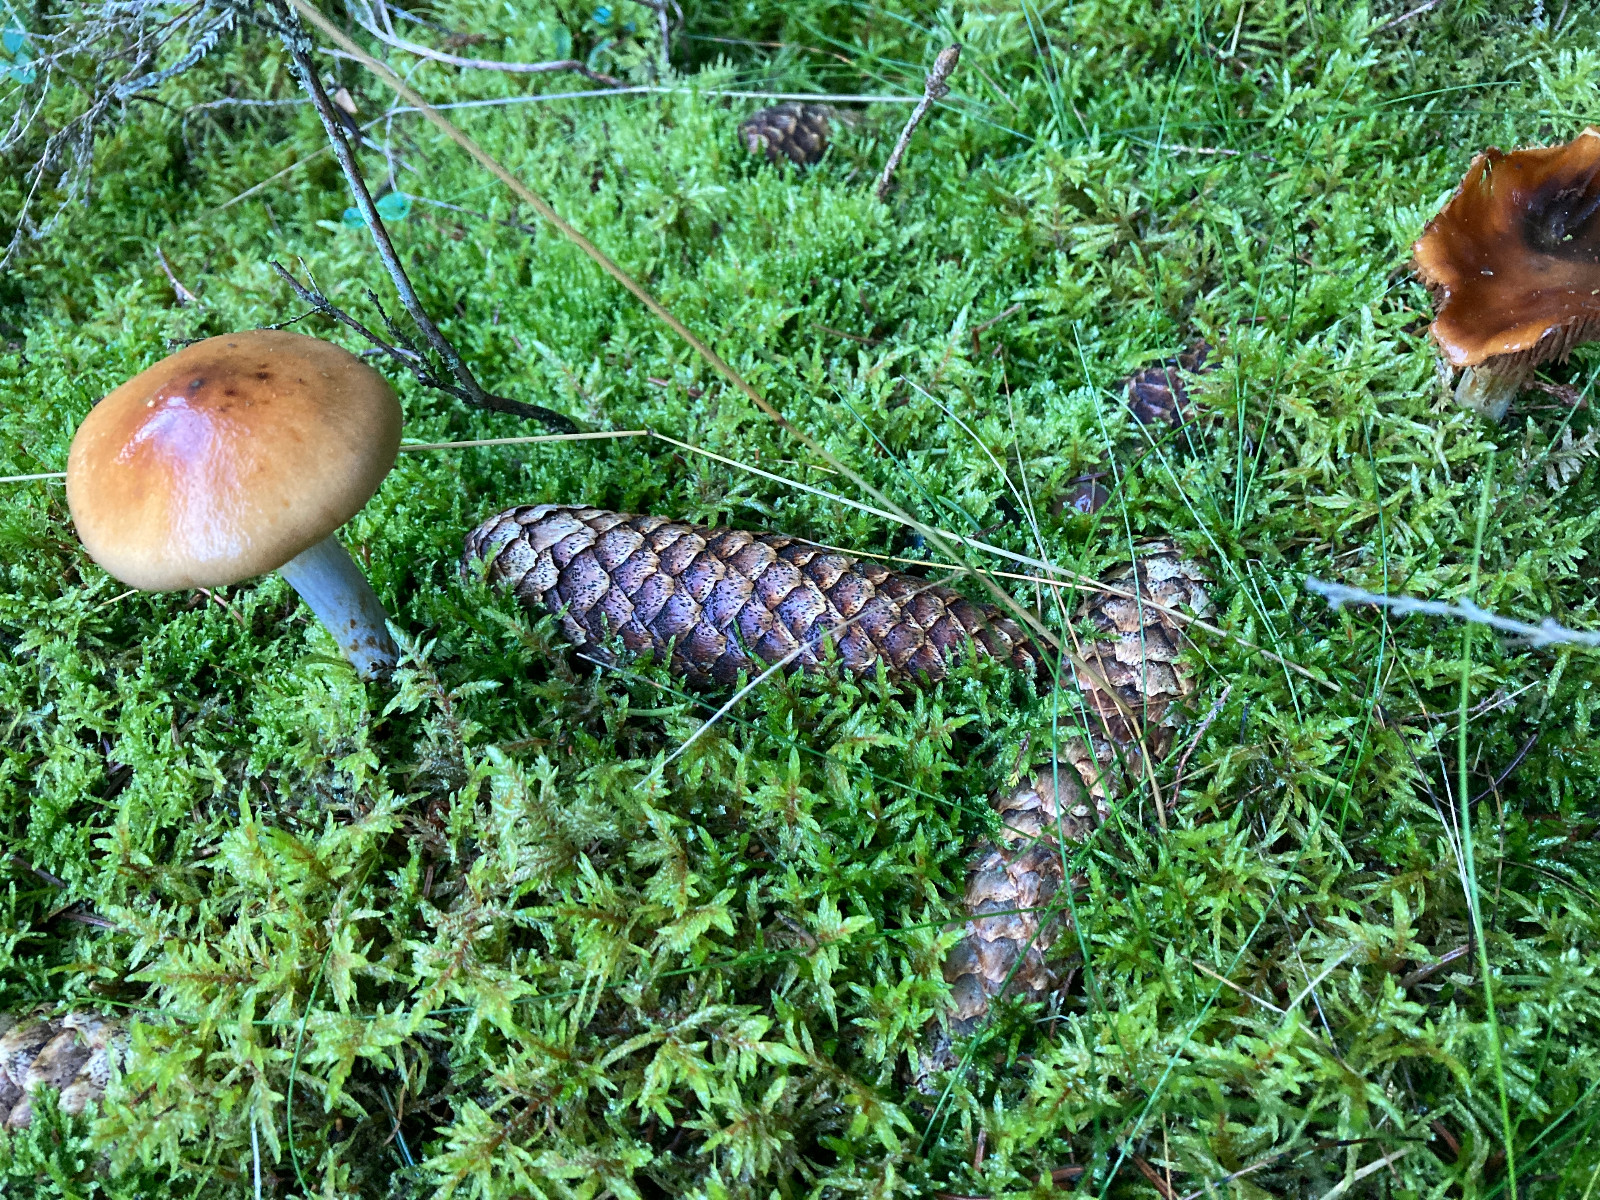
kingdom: Fungi
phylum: Basidiomycota
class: Agaricomycetes
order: Agaricales
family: Cortinariaceae
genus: Cortinarius
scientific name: Cortinarius collinitus
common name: spættet slørhat
